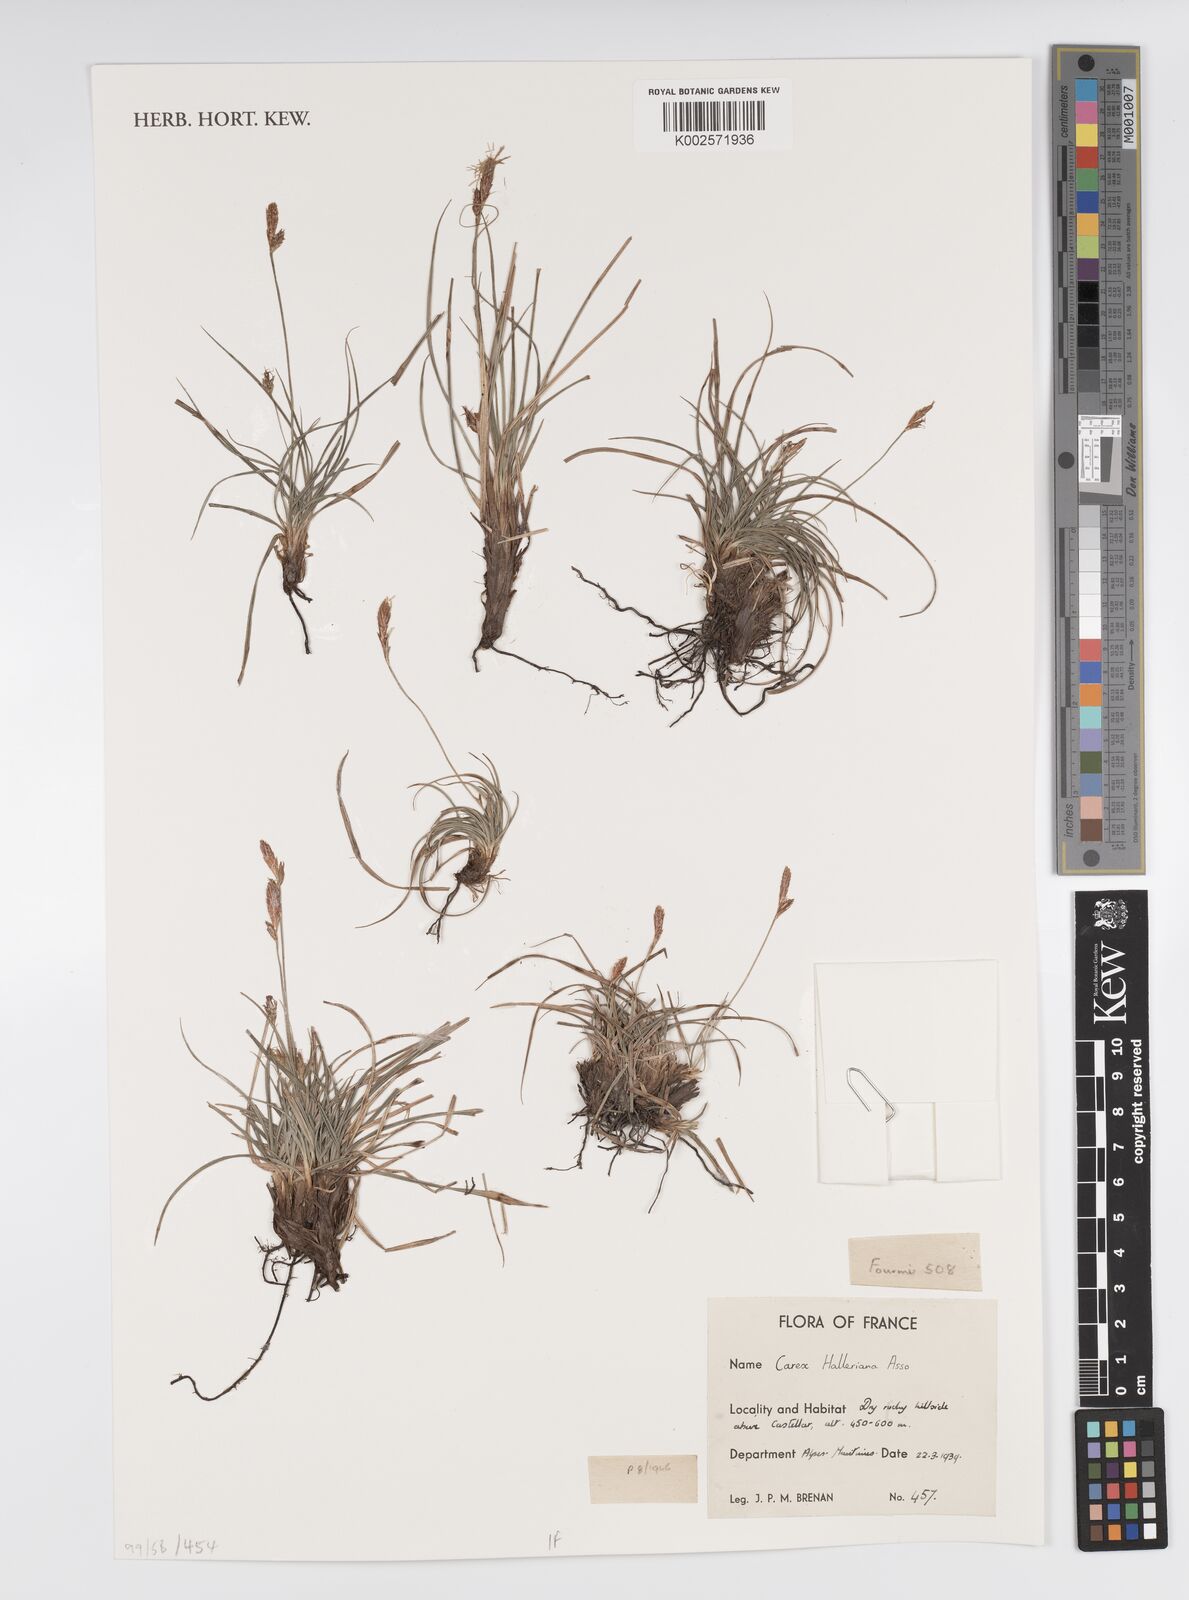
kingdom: Plantae
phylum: Tracheophyta
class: Liliopsida
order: Poales
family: Cyperaceae
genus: Carex
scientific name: Carex halleriana
